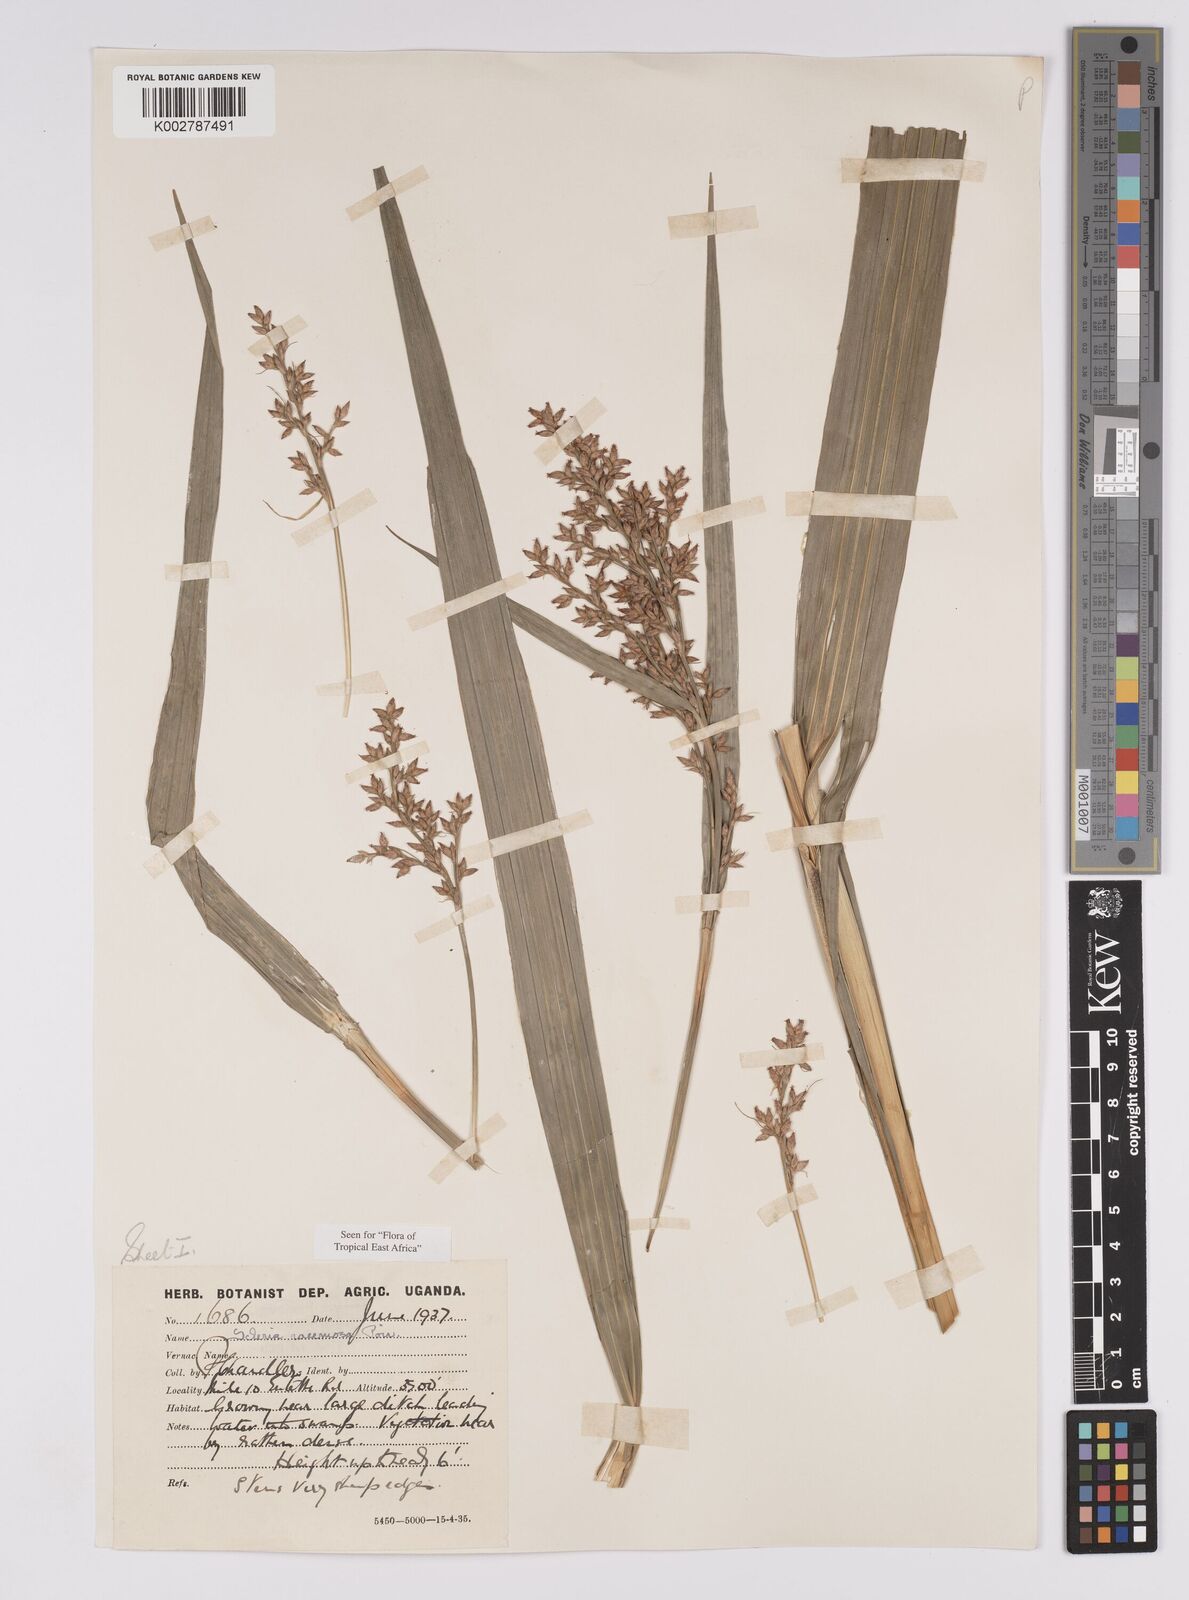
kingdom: Plantae
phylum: Tracheophyta
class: Liliopsida
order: Poales
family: Cyperaceae
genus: Scleria
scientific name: Scleria racemosa
